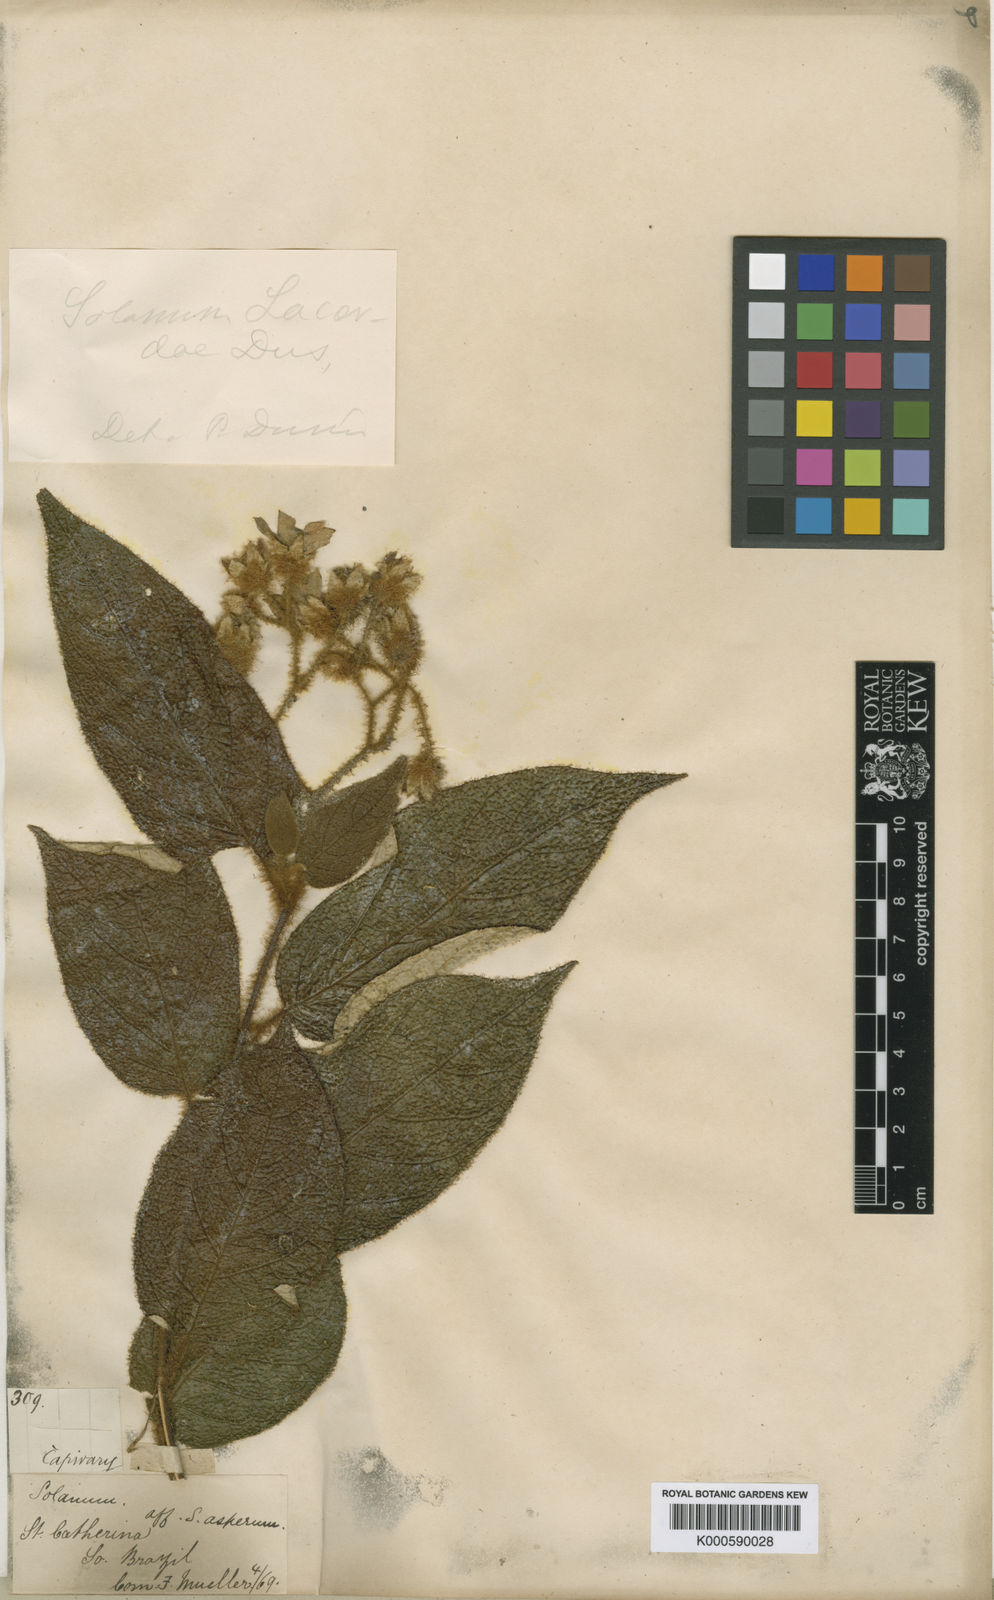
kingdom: Plantae
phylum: Tracheophyta
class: Magnoliopsida
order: Solanales
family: Solanaceae
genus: Solanum
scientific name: Solanum
